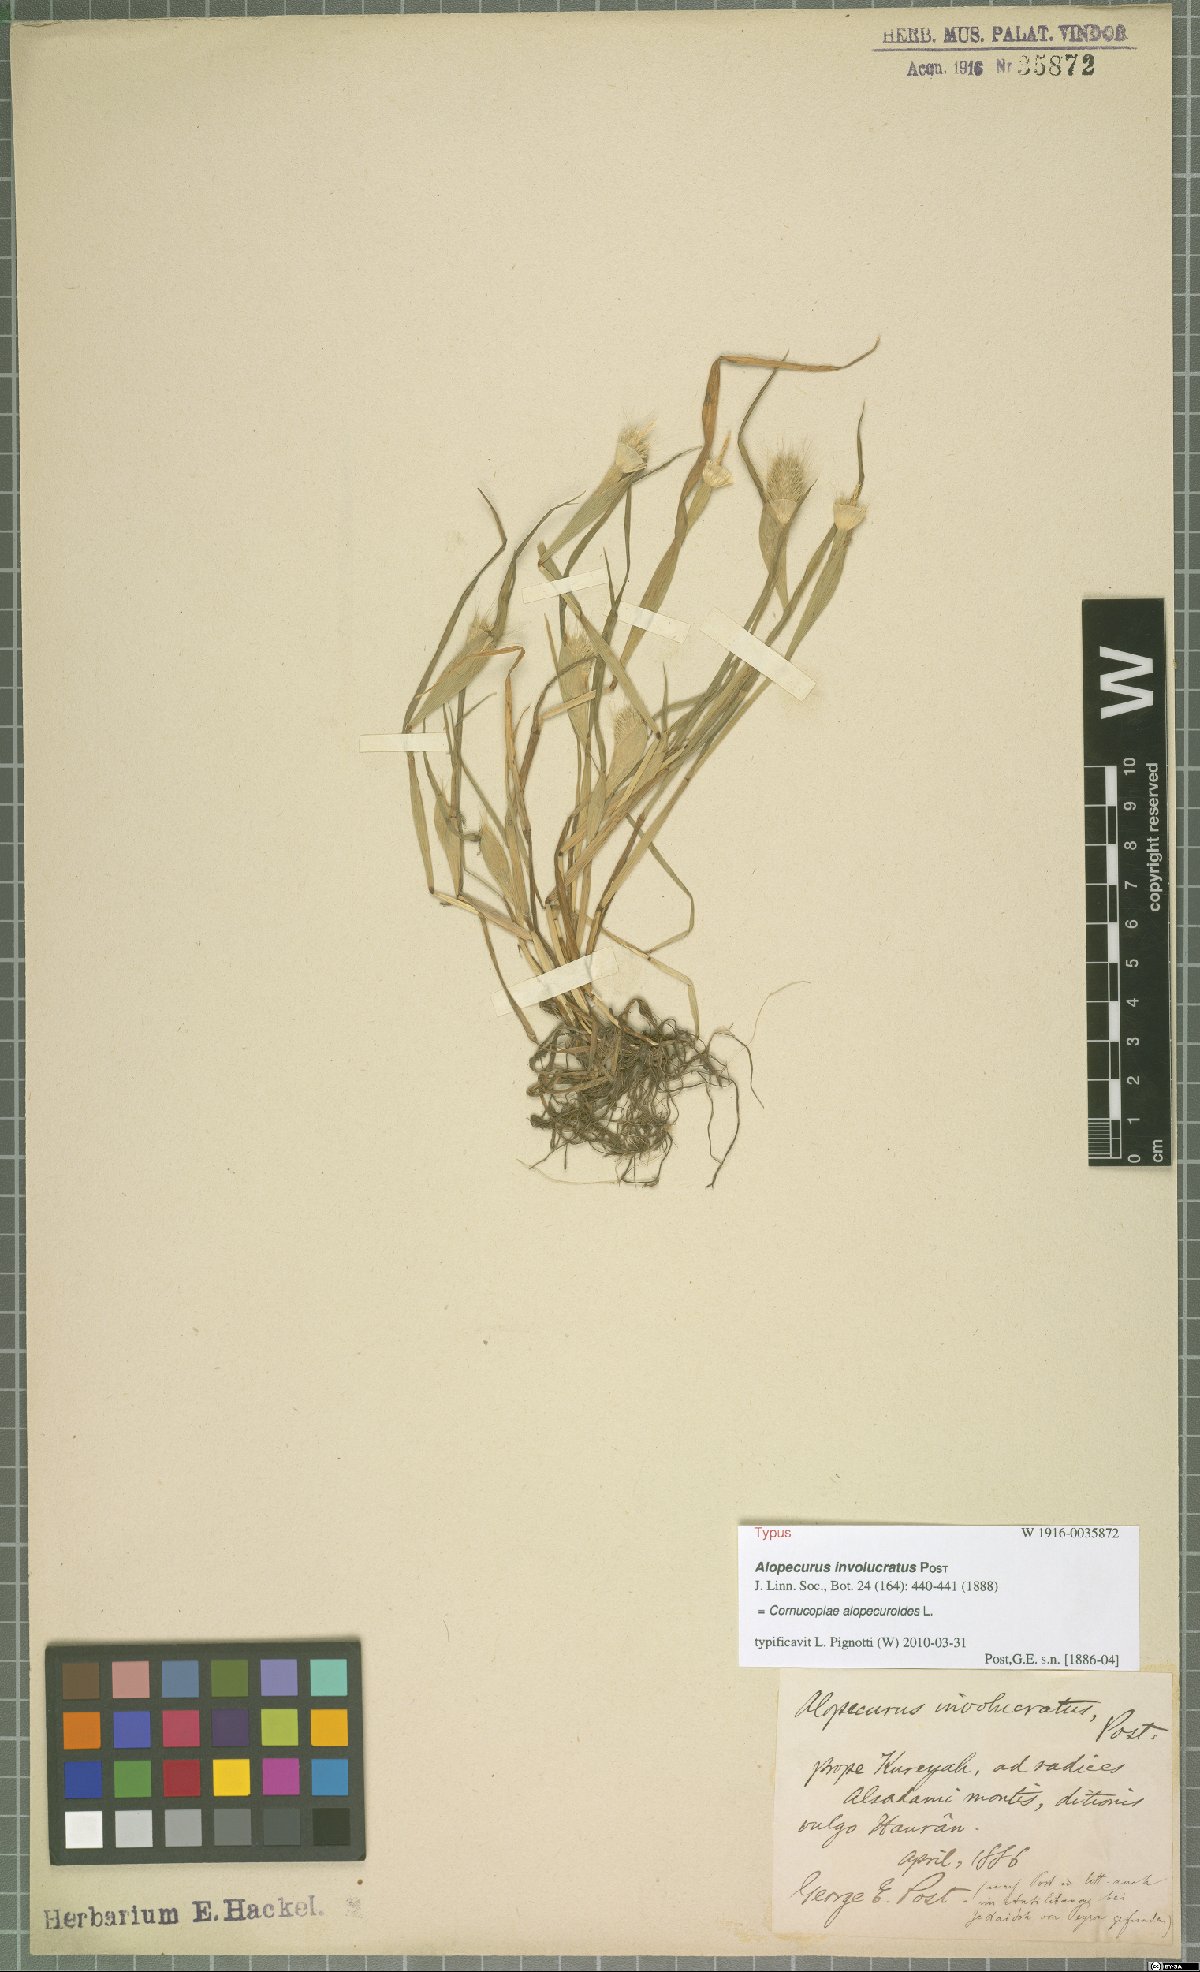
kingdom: Plantae
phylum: Tracheophyta
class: Liliopsida
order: Poales
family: Poaceae
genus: Cornucopiae
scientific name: Cornucopiae alopecuroides
